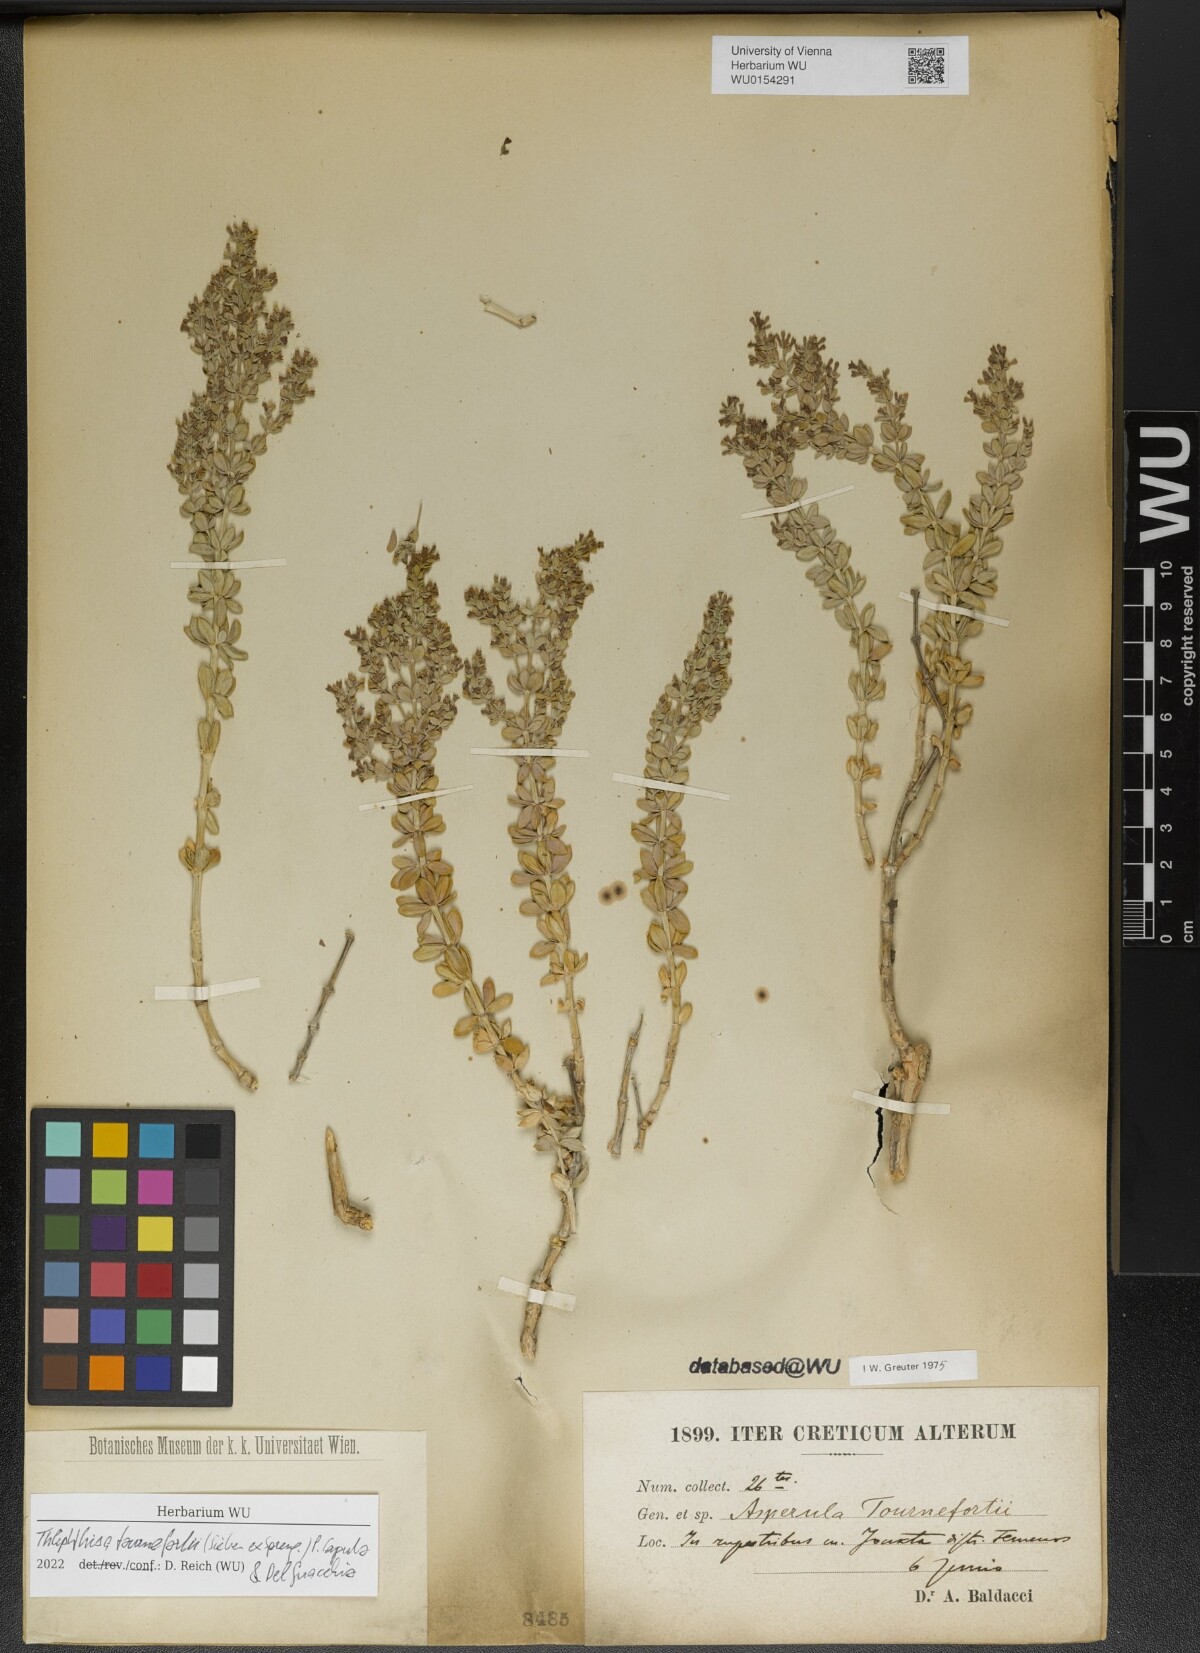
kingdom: Plantae
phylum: Tracheophyta
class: Magnoliopsida
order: Gentianales
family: Rubiaceae
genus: Thliphthisa
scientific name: Thliphthisa tournefortii
